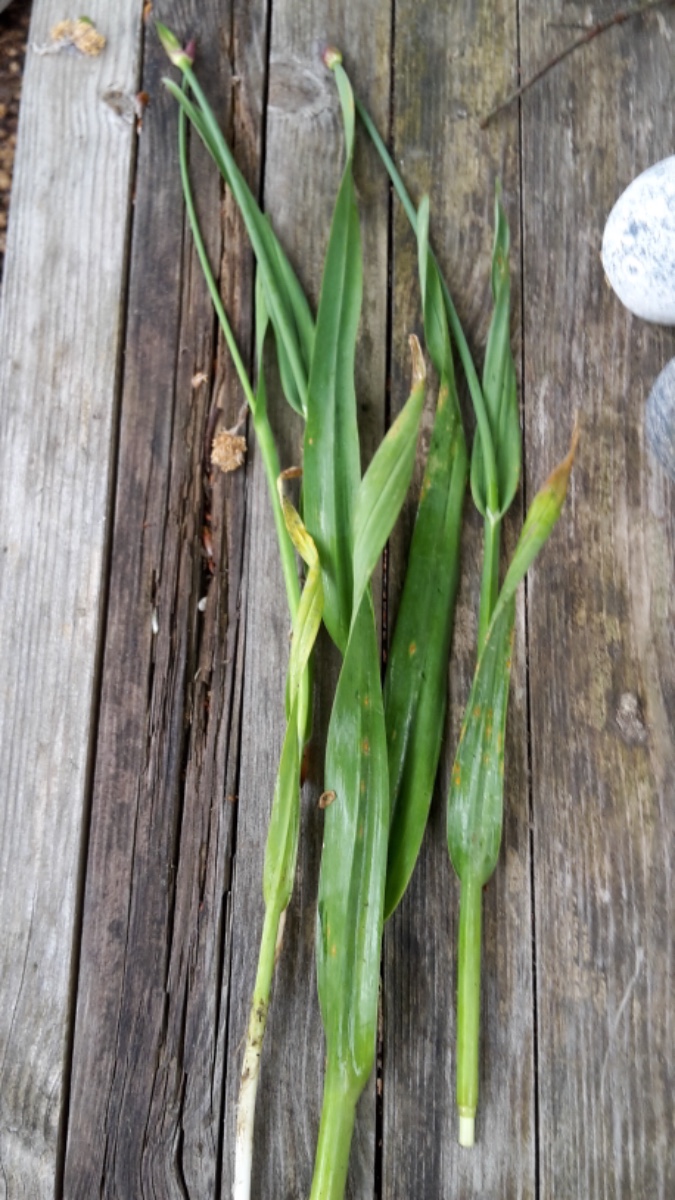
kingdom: Fungi
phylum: Basidiomycota
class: Pucciniomycetes
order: Pucciniales
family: Pucciniaceae
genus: Puccinia
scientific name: Puccinia porri
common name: Allium rust
